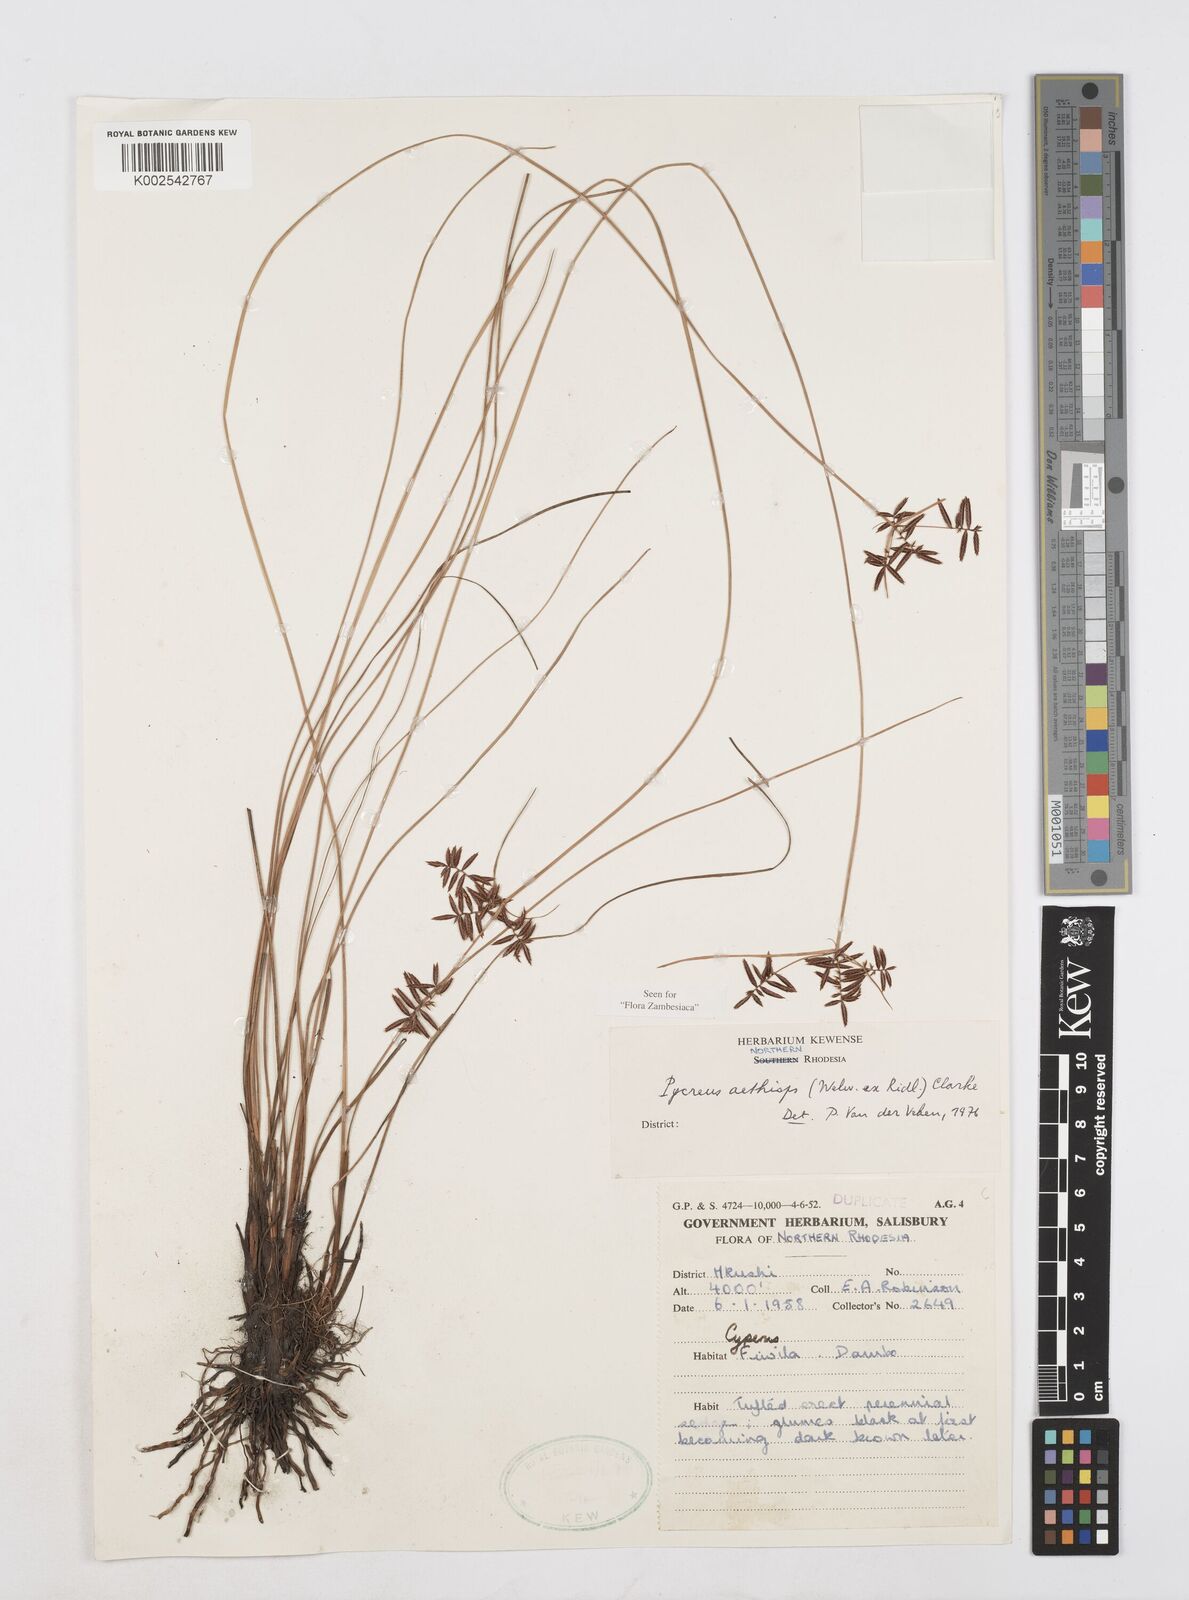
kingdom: Plantae
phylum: Tracheophyta
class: Liliopsida
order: Poales
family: Cyperaceae
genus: Cyperus
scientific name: Cyperus aethiops
